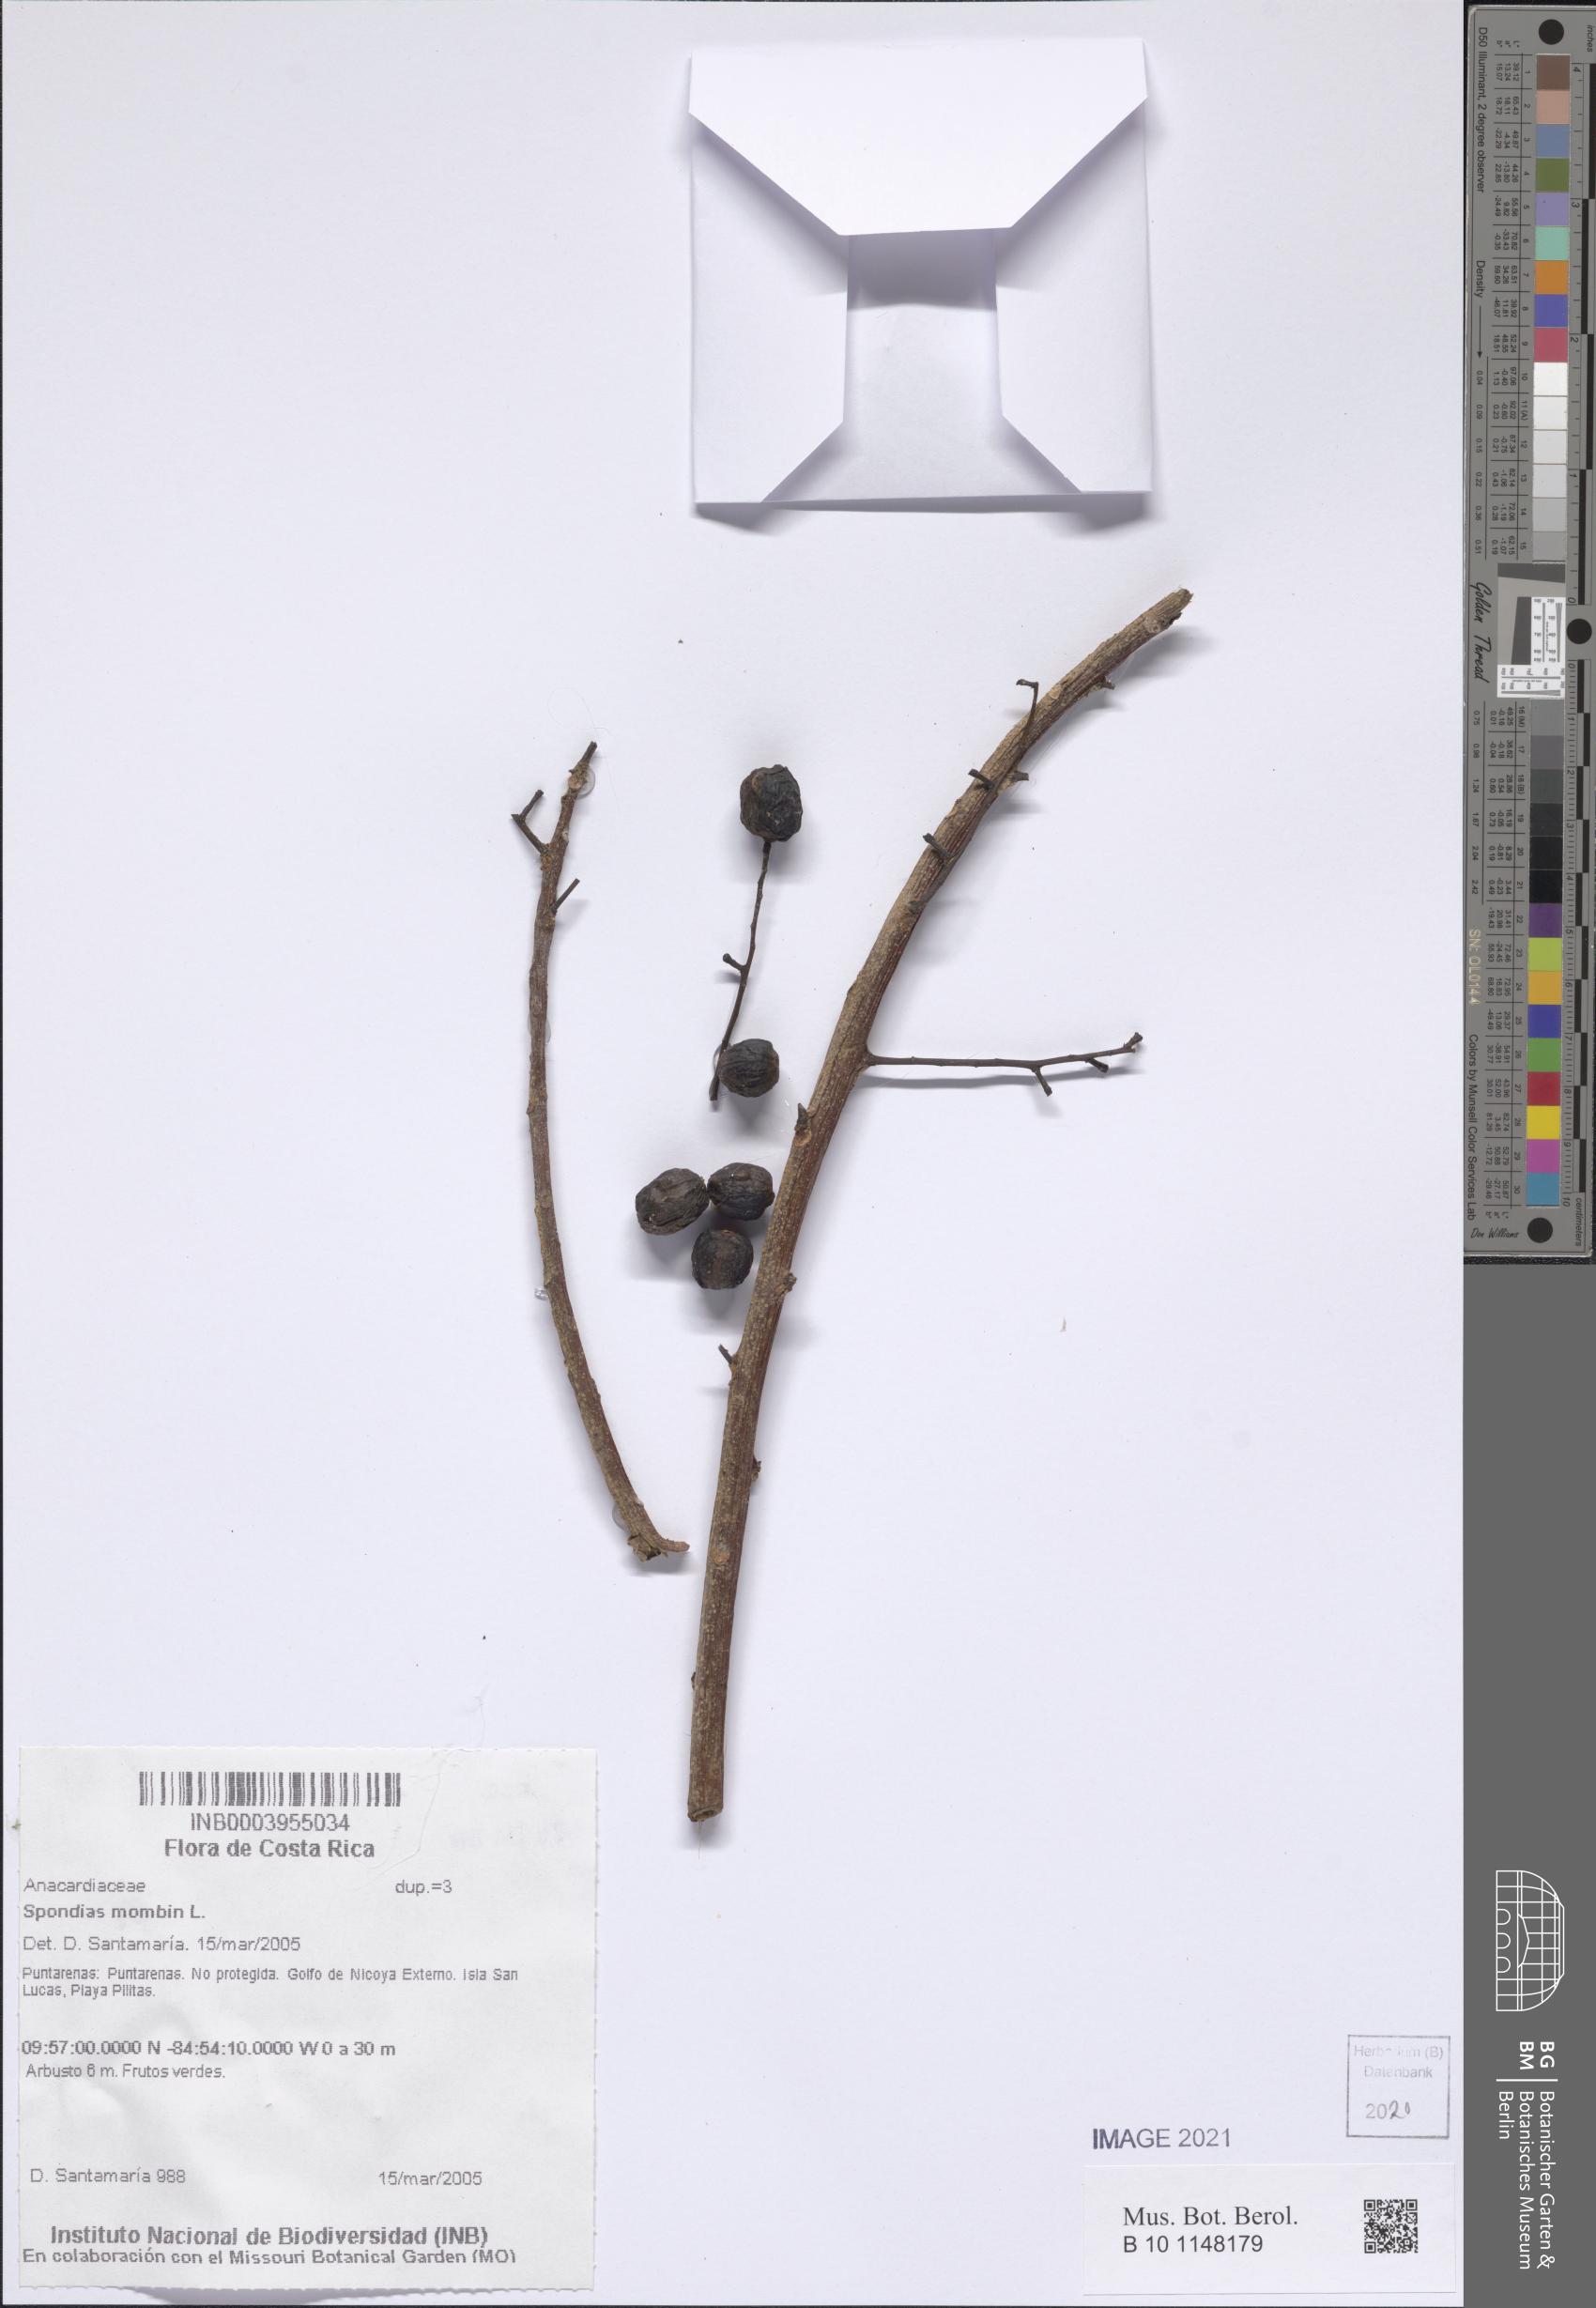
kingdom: Plantae
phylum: Tracheophyta
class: Magnoliopsida
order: Sapindales
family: Anacardiaceae
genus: Spondias
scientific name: Spondias mombin
